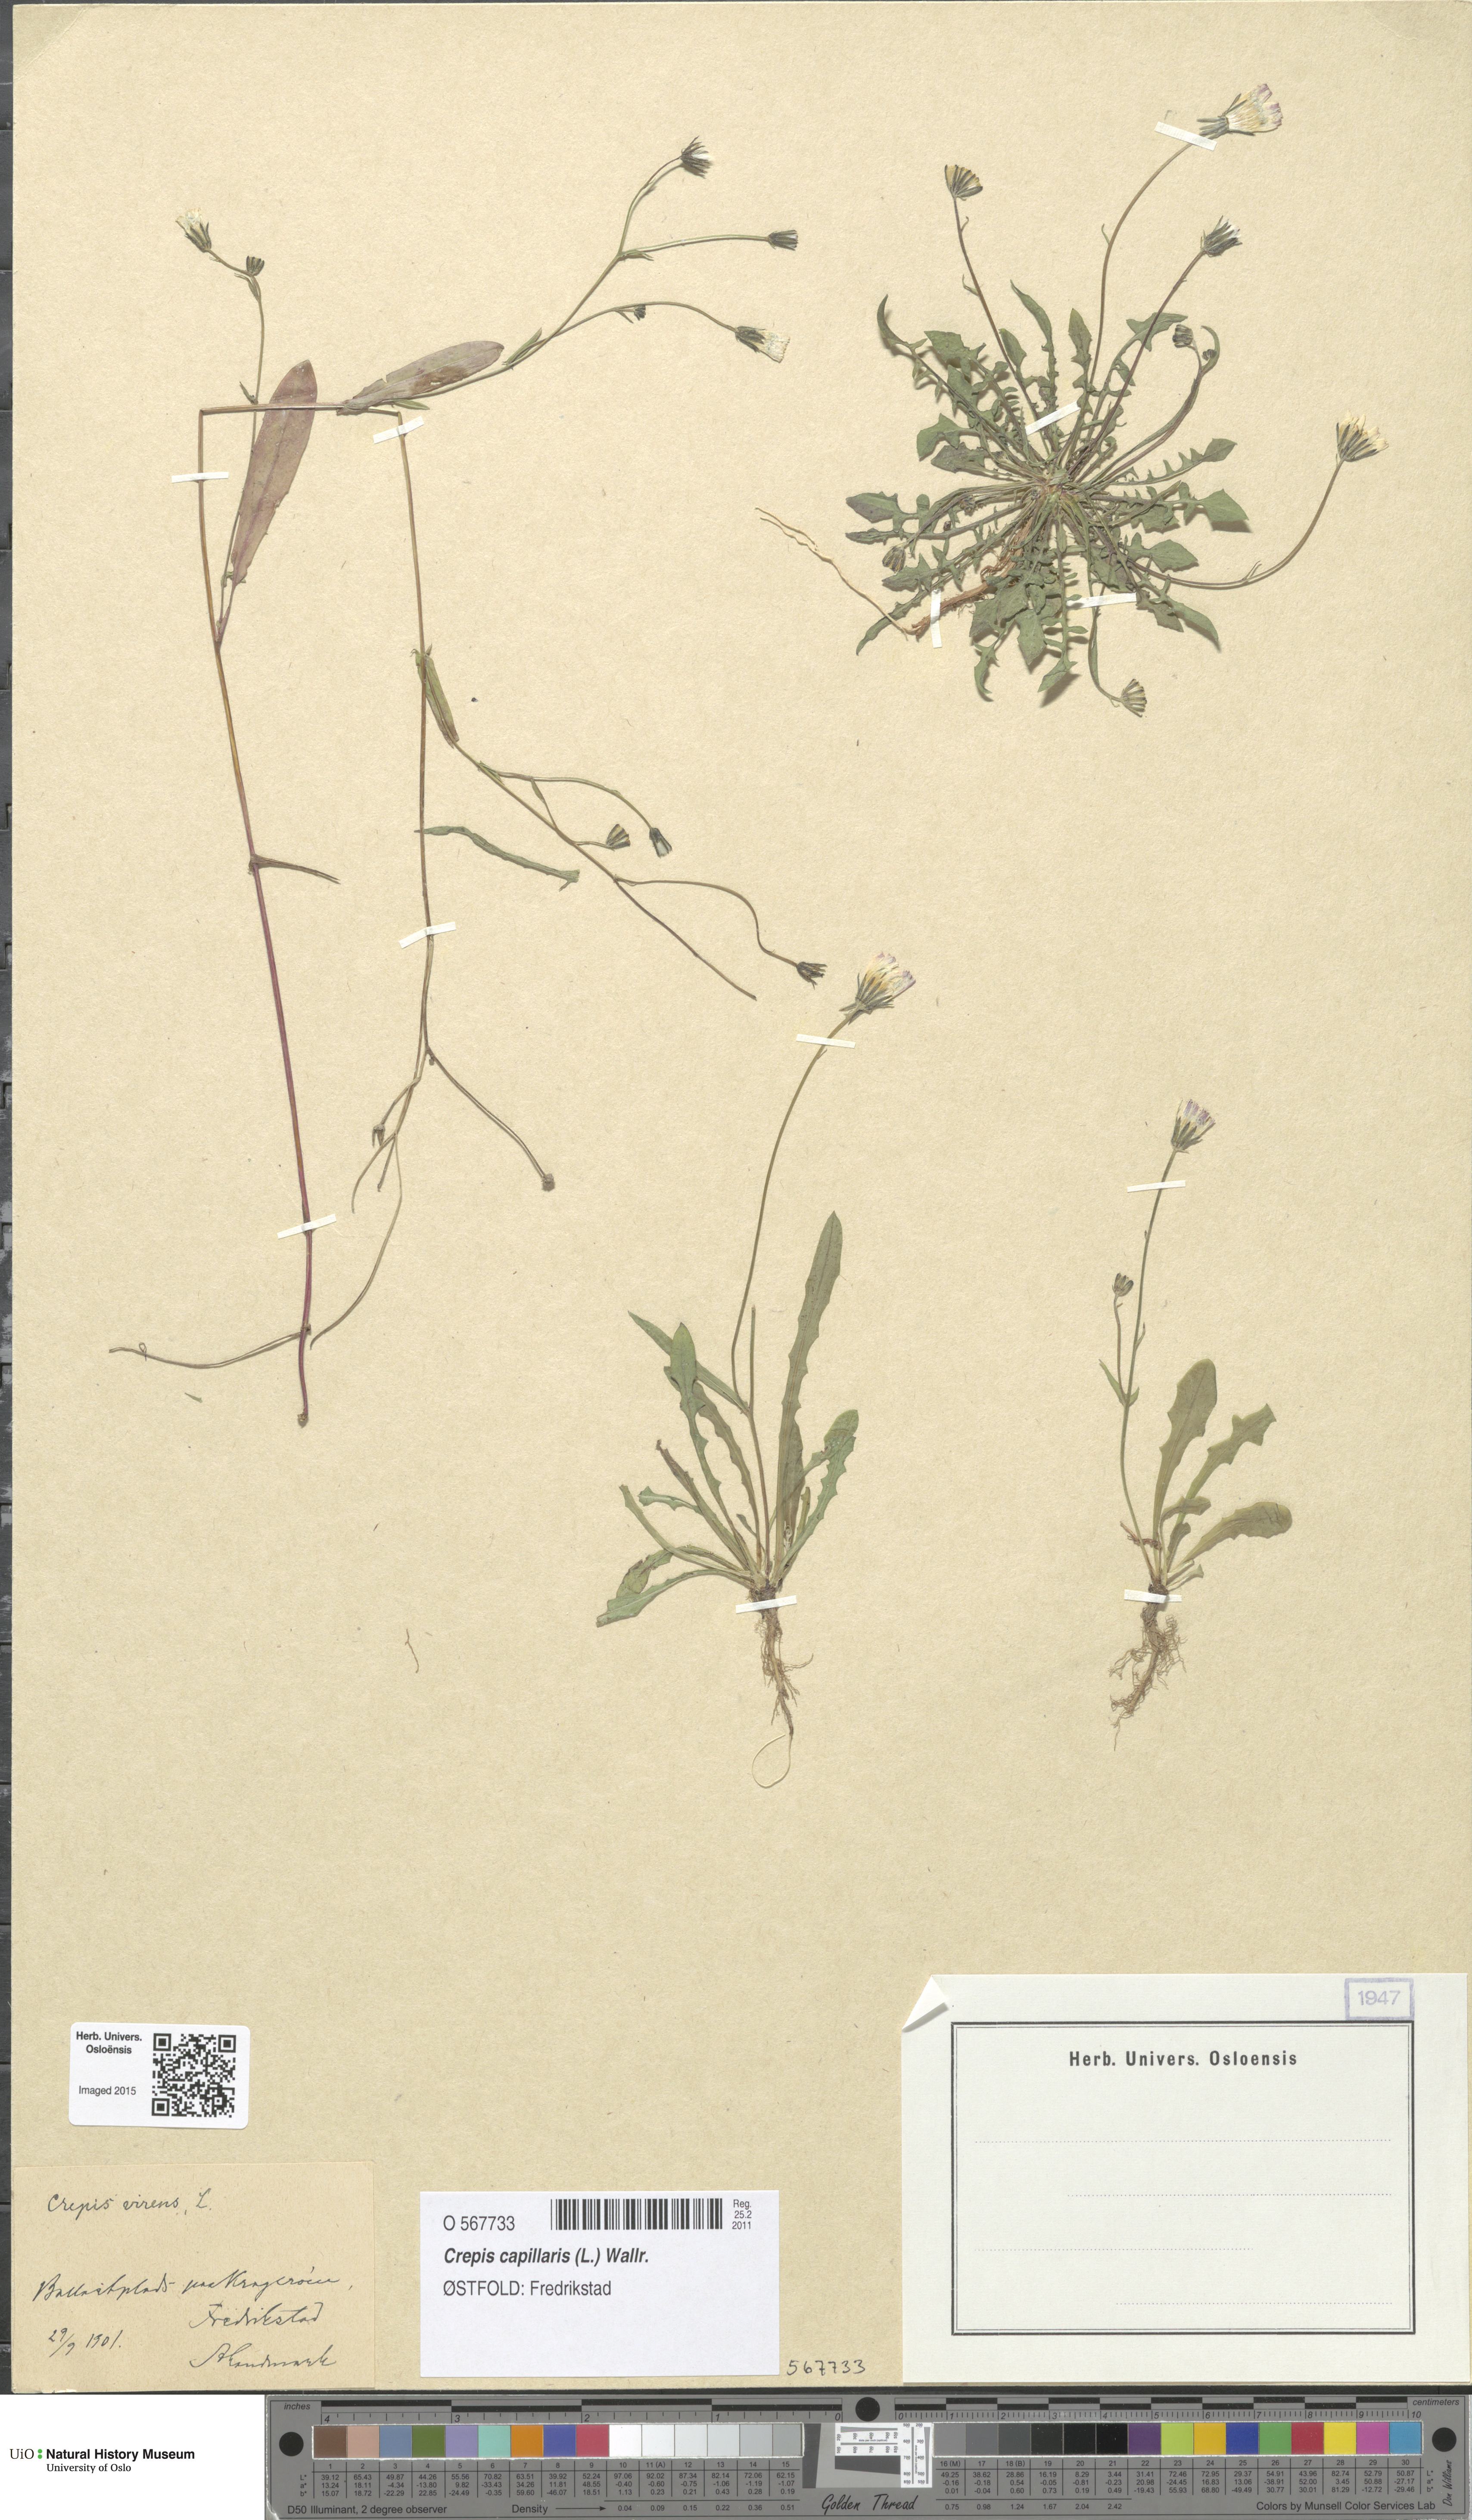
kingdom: Plantae
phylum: Tracheophyta
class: Magnoliopsida
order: Asterales
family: Asteraceae
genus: Crepis
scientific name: Crepis capillaris
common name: Smooth hawksbeard
